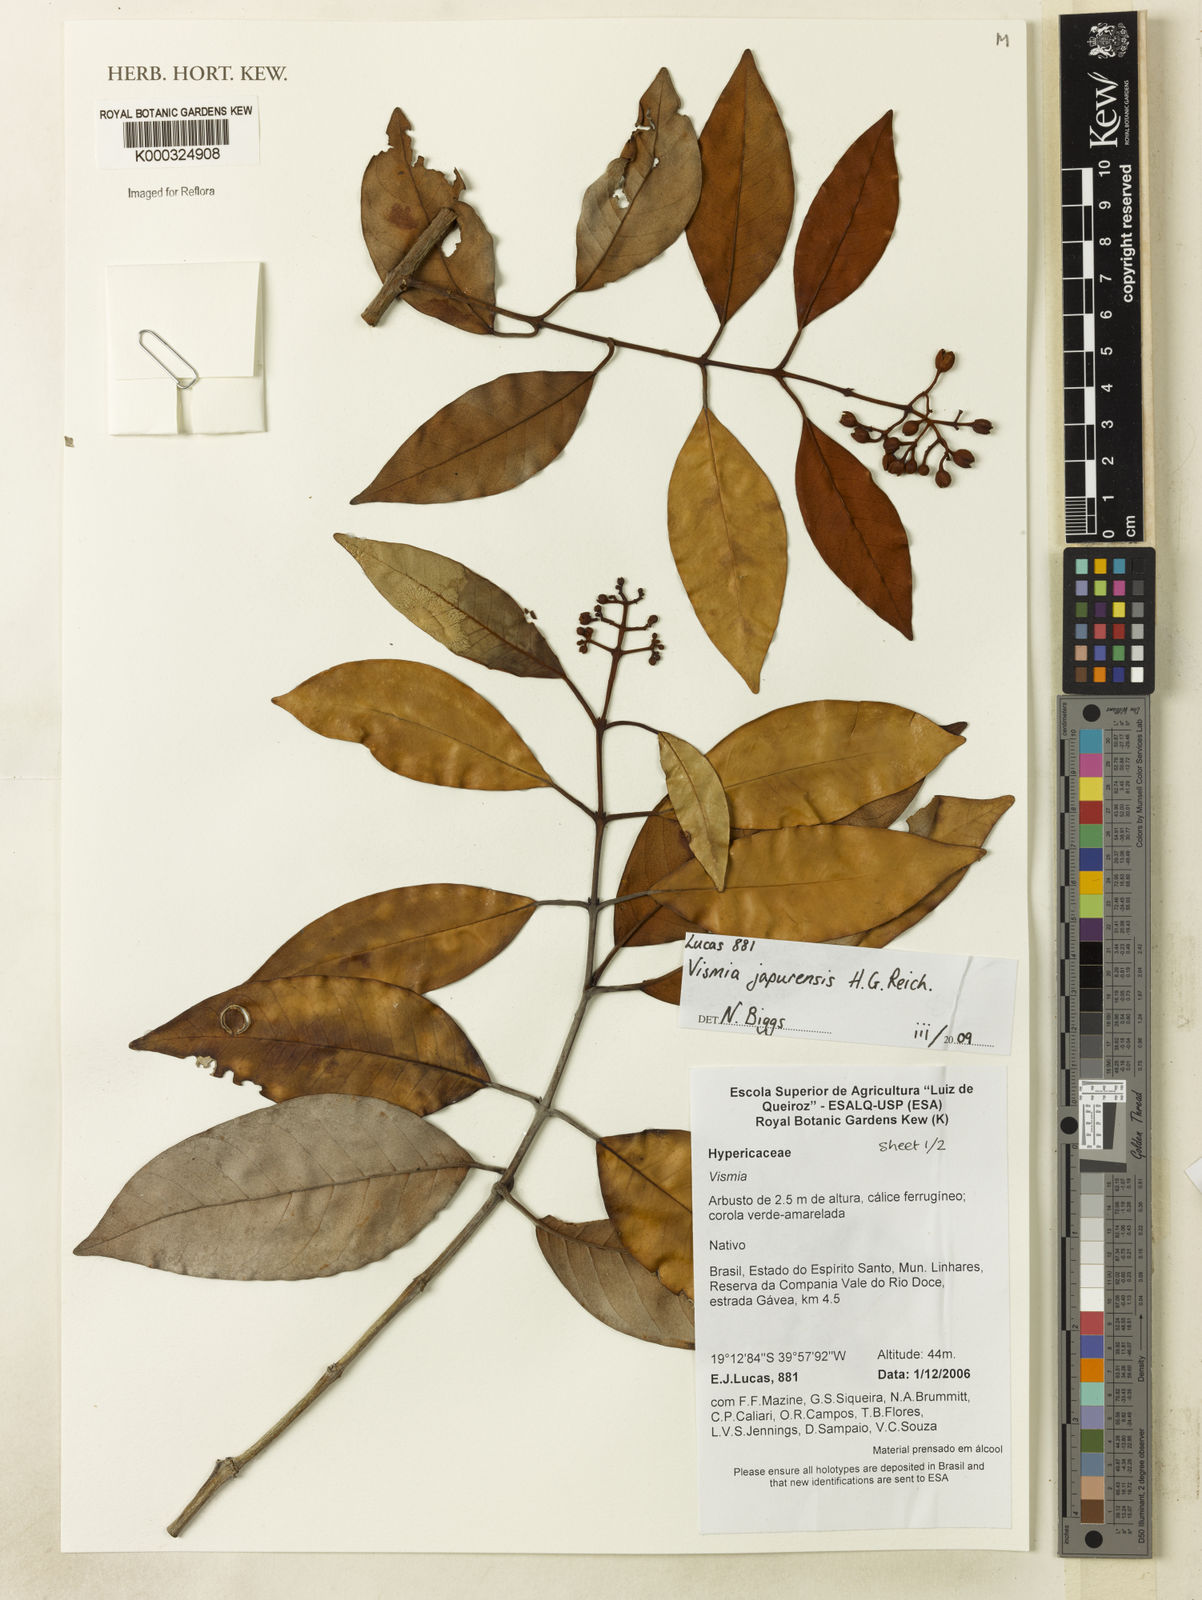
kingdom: Plantae
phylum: Tracheophyta
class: Magnoliopsida
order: Malpighiales
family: Hypericaceae
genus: Vismia
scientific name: Vismia
